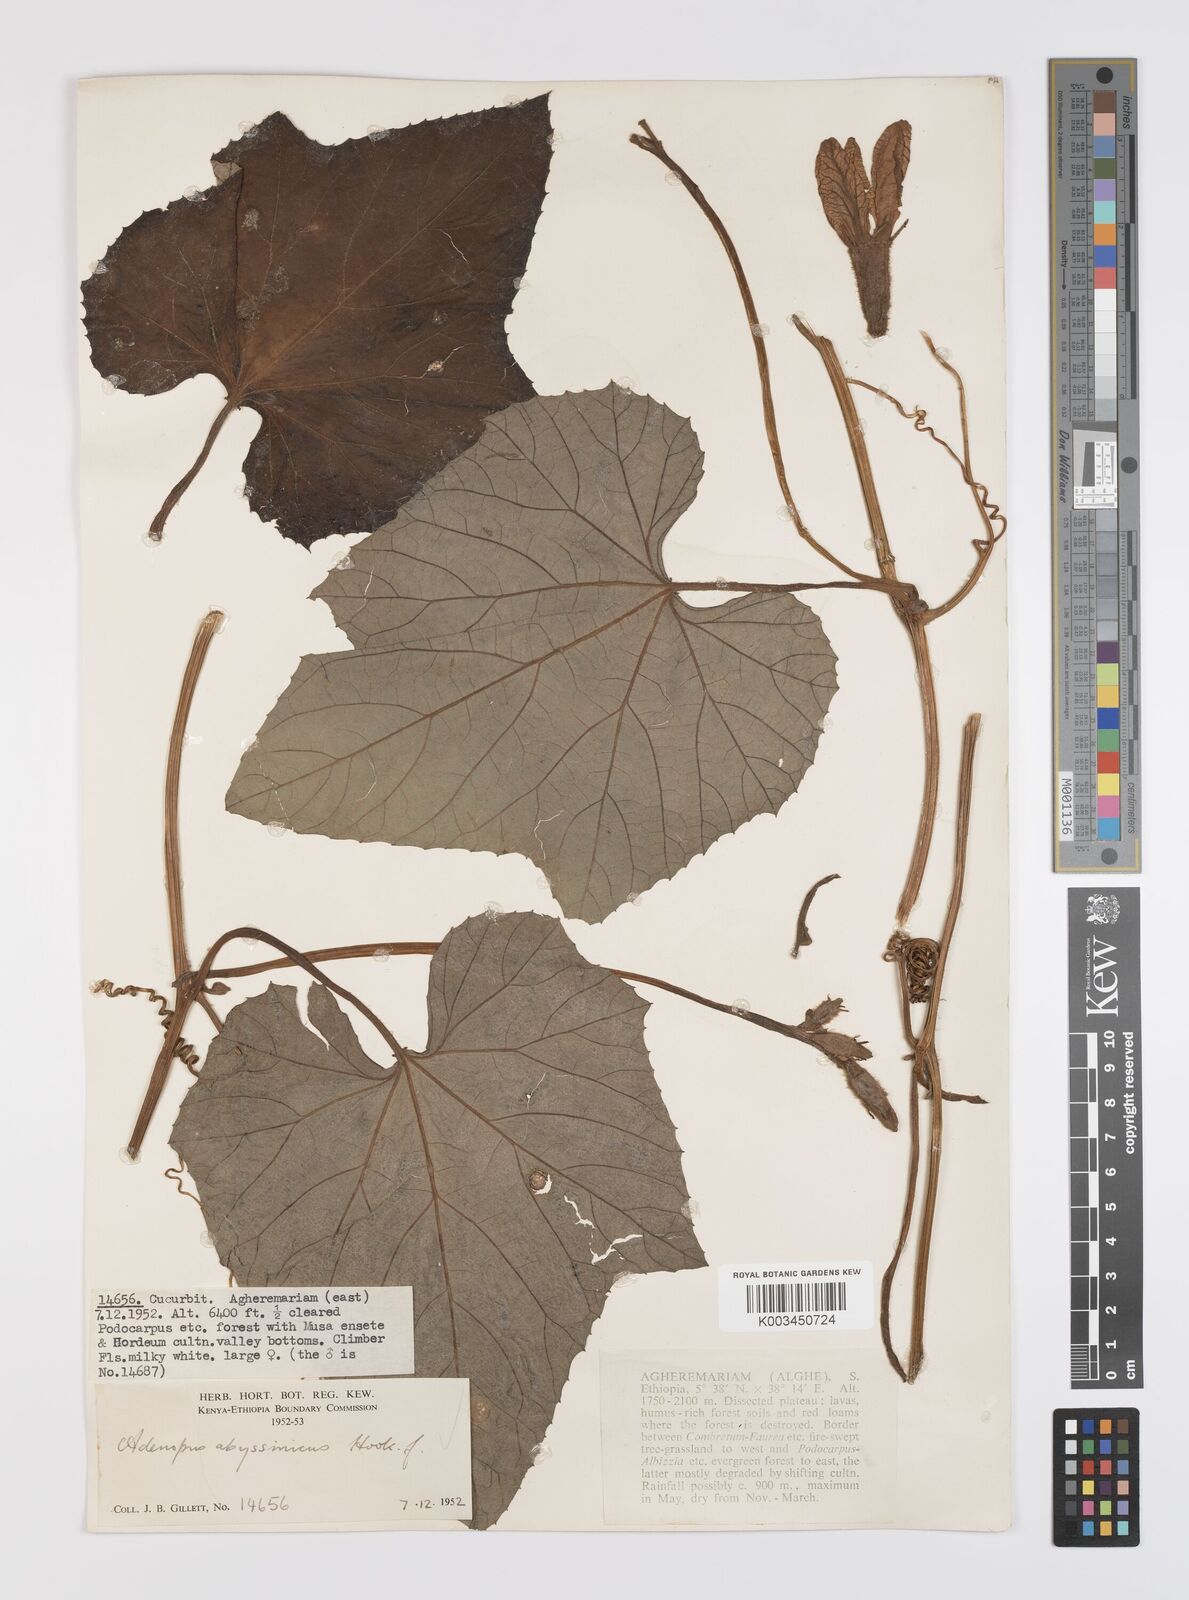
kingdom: Plantae
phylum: Tracheophyta
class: Magnoliopsida
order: Cucurbitales
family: Cucurbitaceae
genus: Lagenaria
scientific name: Lagenaria abyssinica
